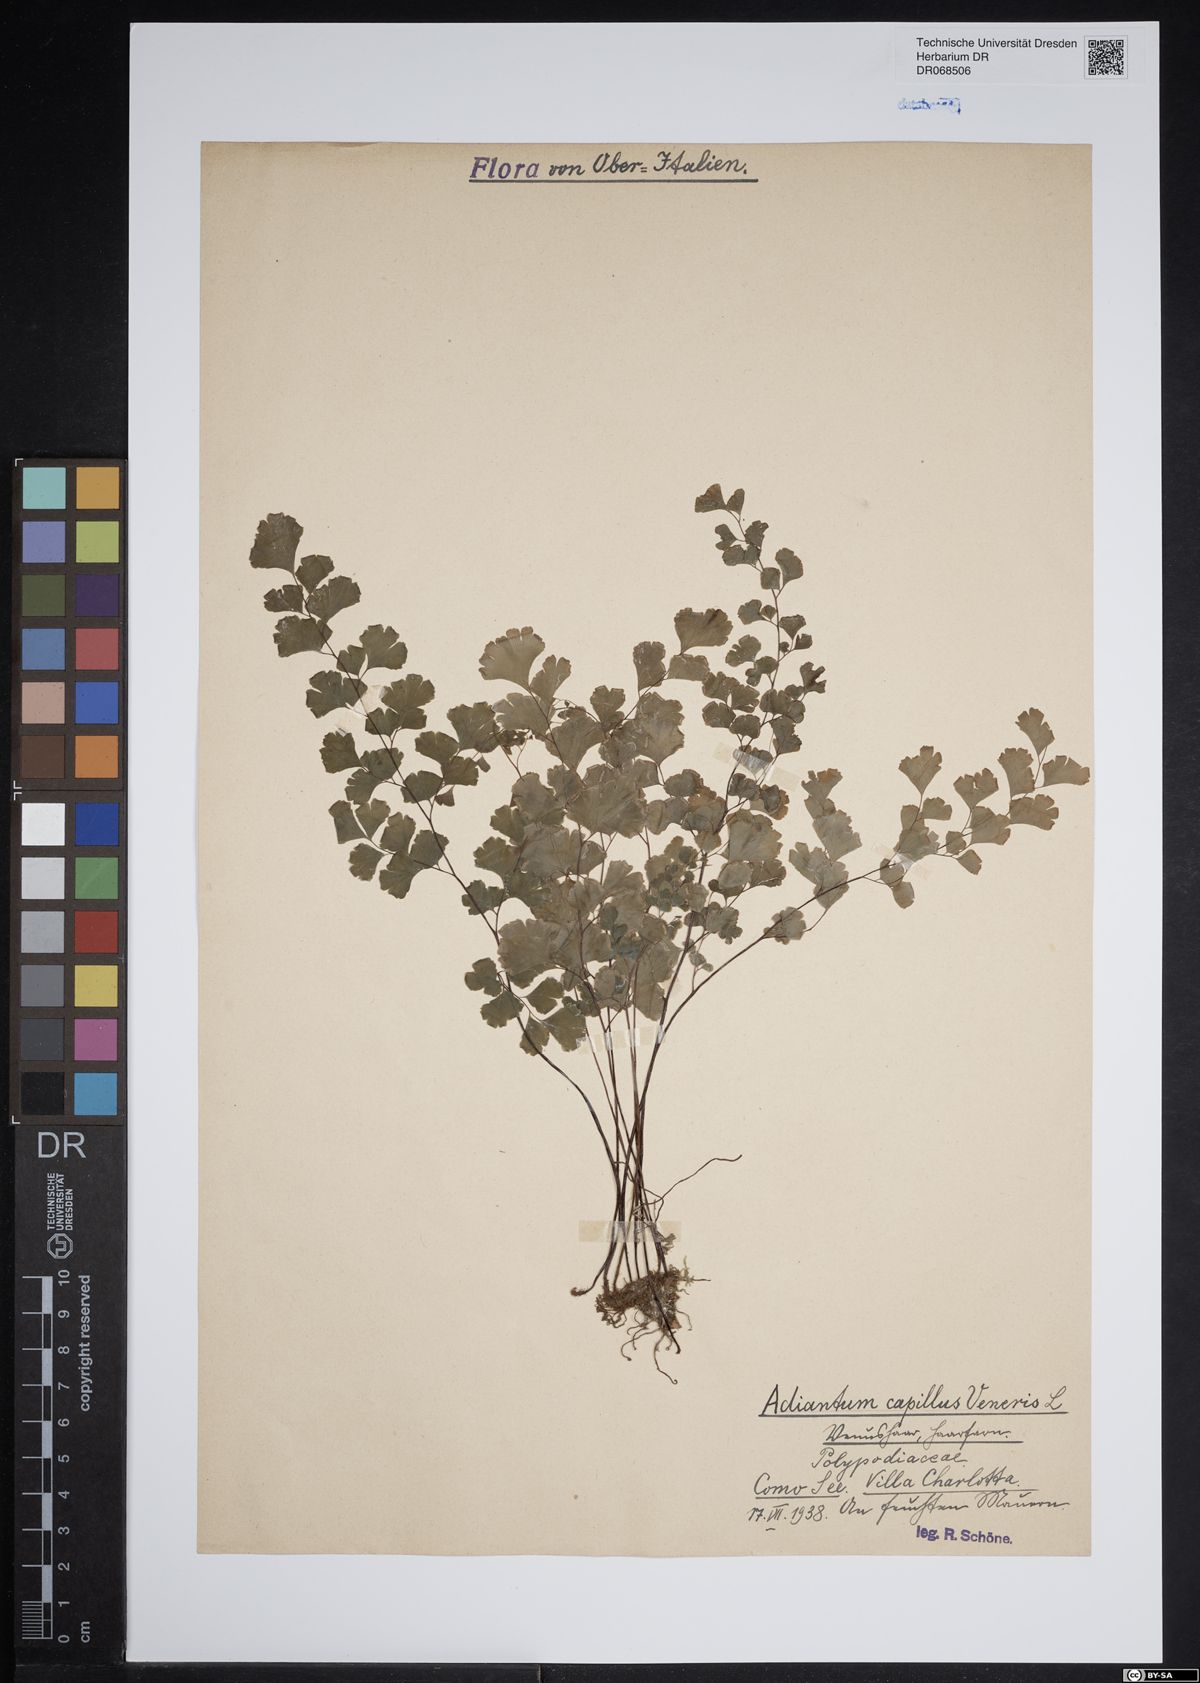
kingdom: Plantae
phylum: Tracheophyta
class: Polypodiopsida
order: Polypodiales
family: Pteridaceae
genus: Adiantum
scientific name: Adiantum capillus-veneris
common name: Maidenhair fern
